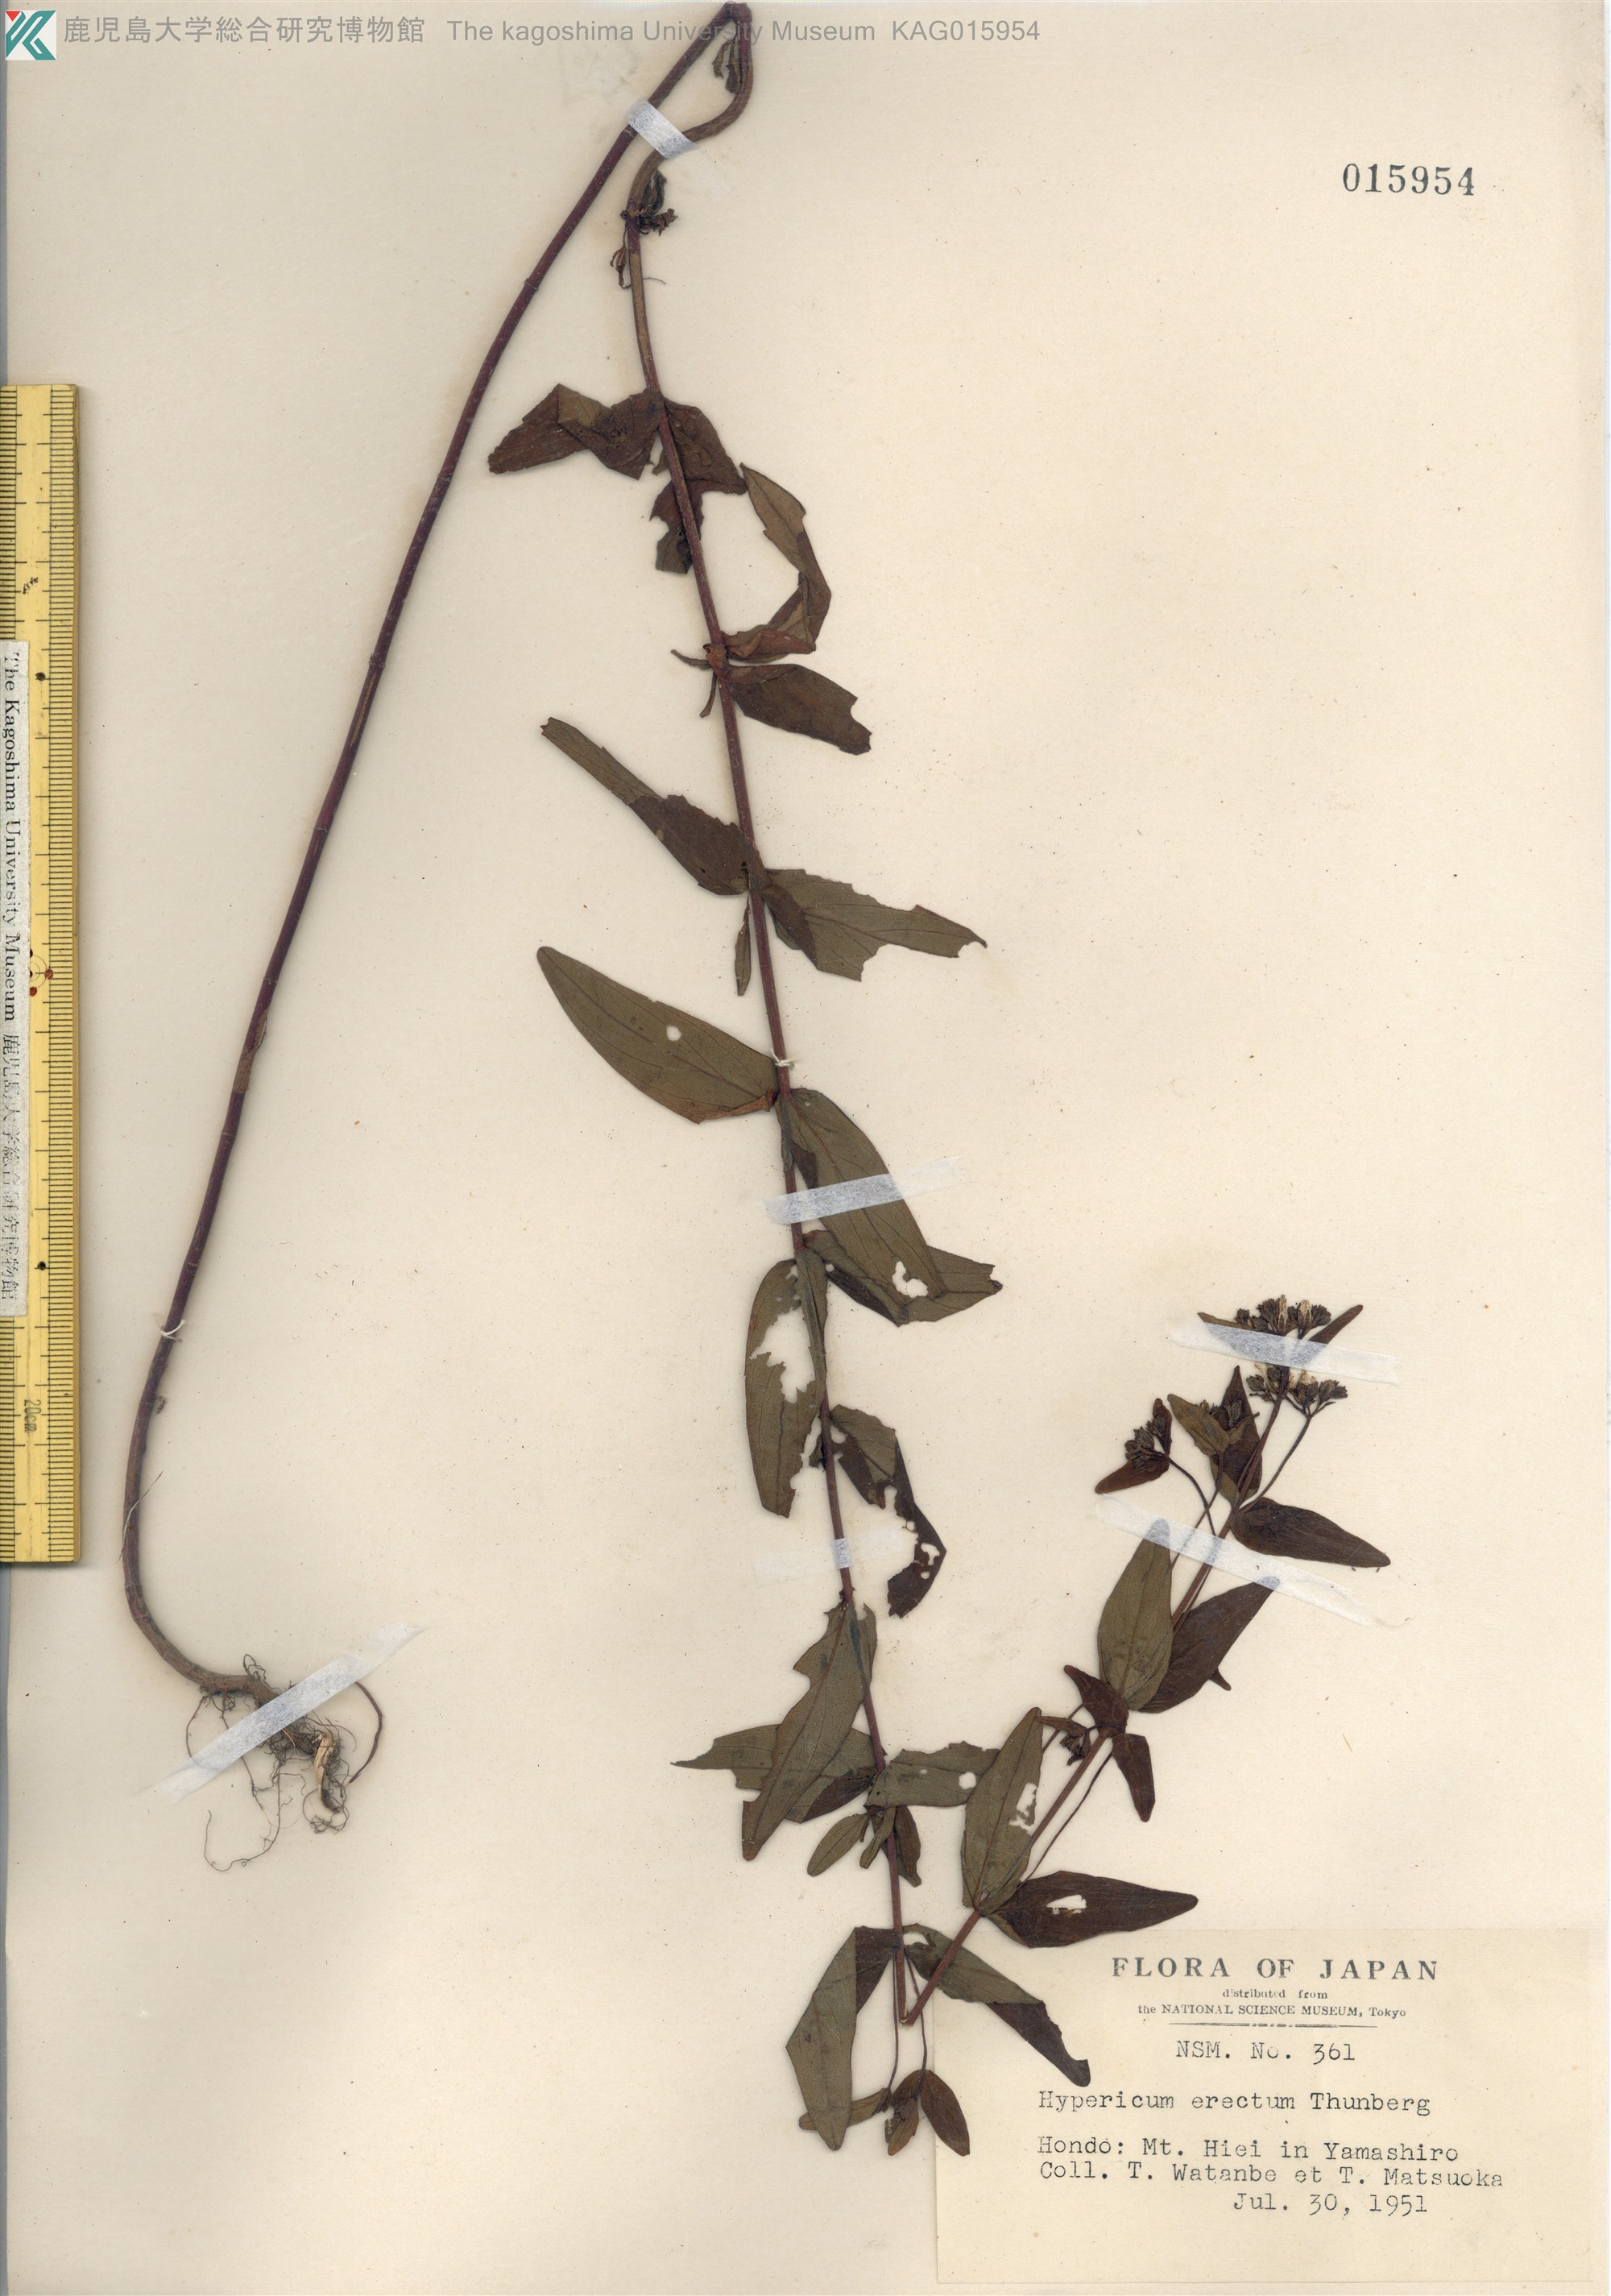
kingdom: Plantae
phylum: Tracheophyta
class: Magnoliopsida
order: Malpighiales
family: Hypericaceae
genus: Hypericum
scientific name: Hypericum erectum
